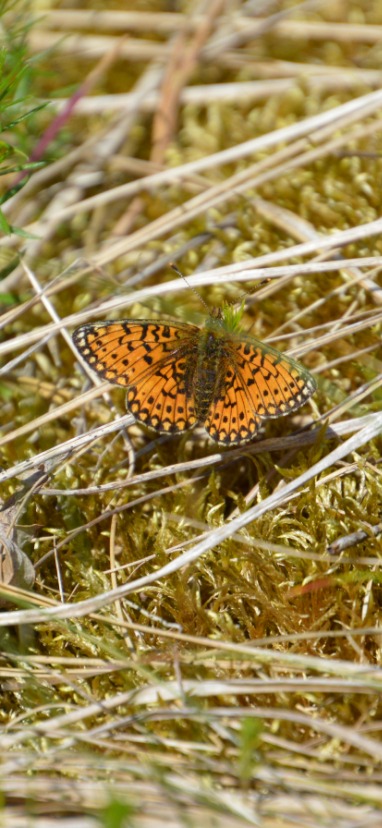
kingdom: Animalia
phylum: Arthropoda
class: Insecta
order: Lepidoptera
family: Nymphalidae
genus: Boloria
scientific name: Boloria selene
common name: Brunlig perlemorsommerfugl
